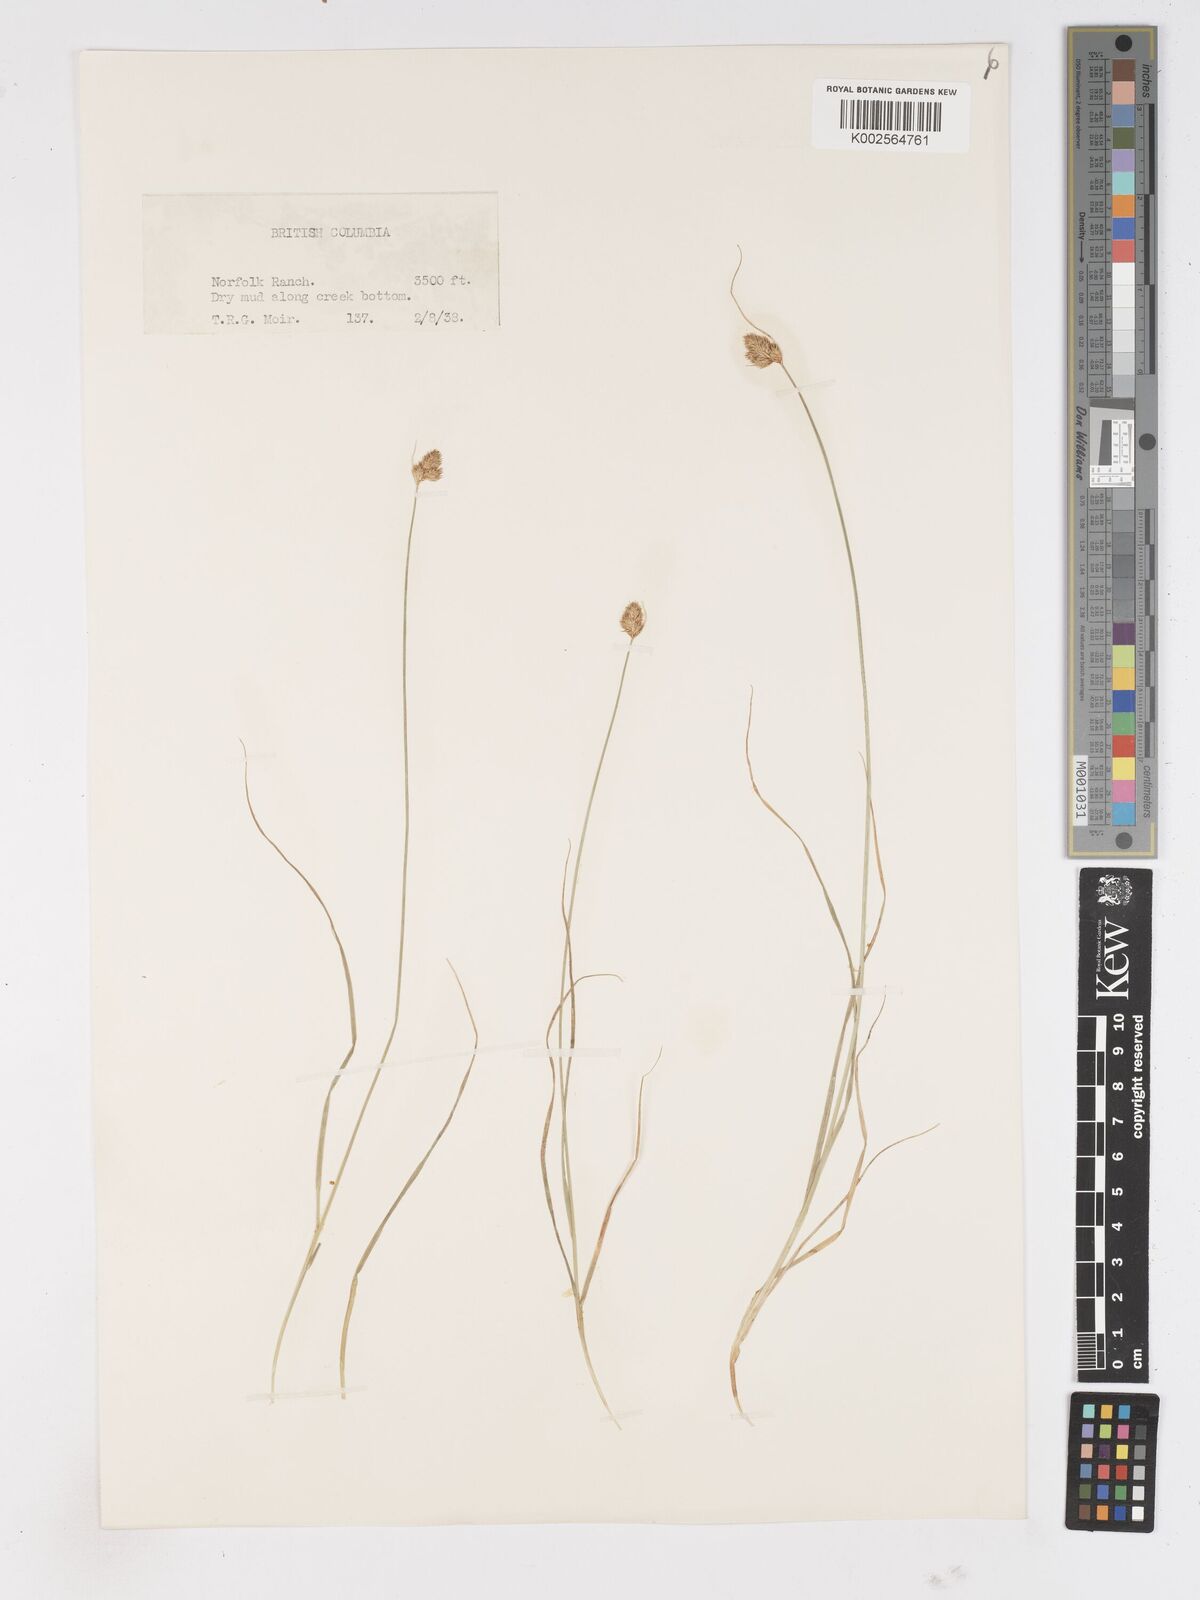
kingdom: Plantae
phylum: Tracheophyta
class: Liliopsida
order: Poales
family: Cyperaceae
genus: Carex
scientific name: Carex
